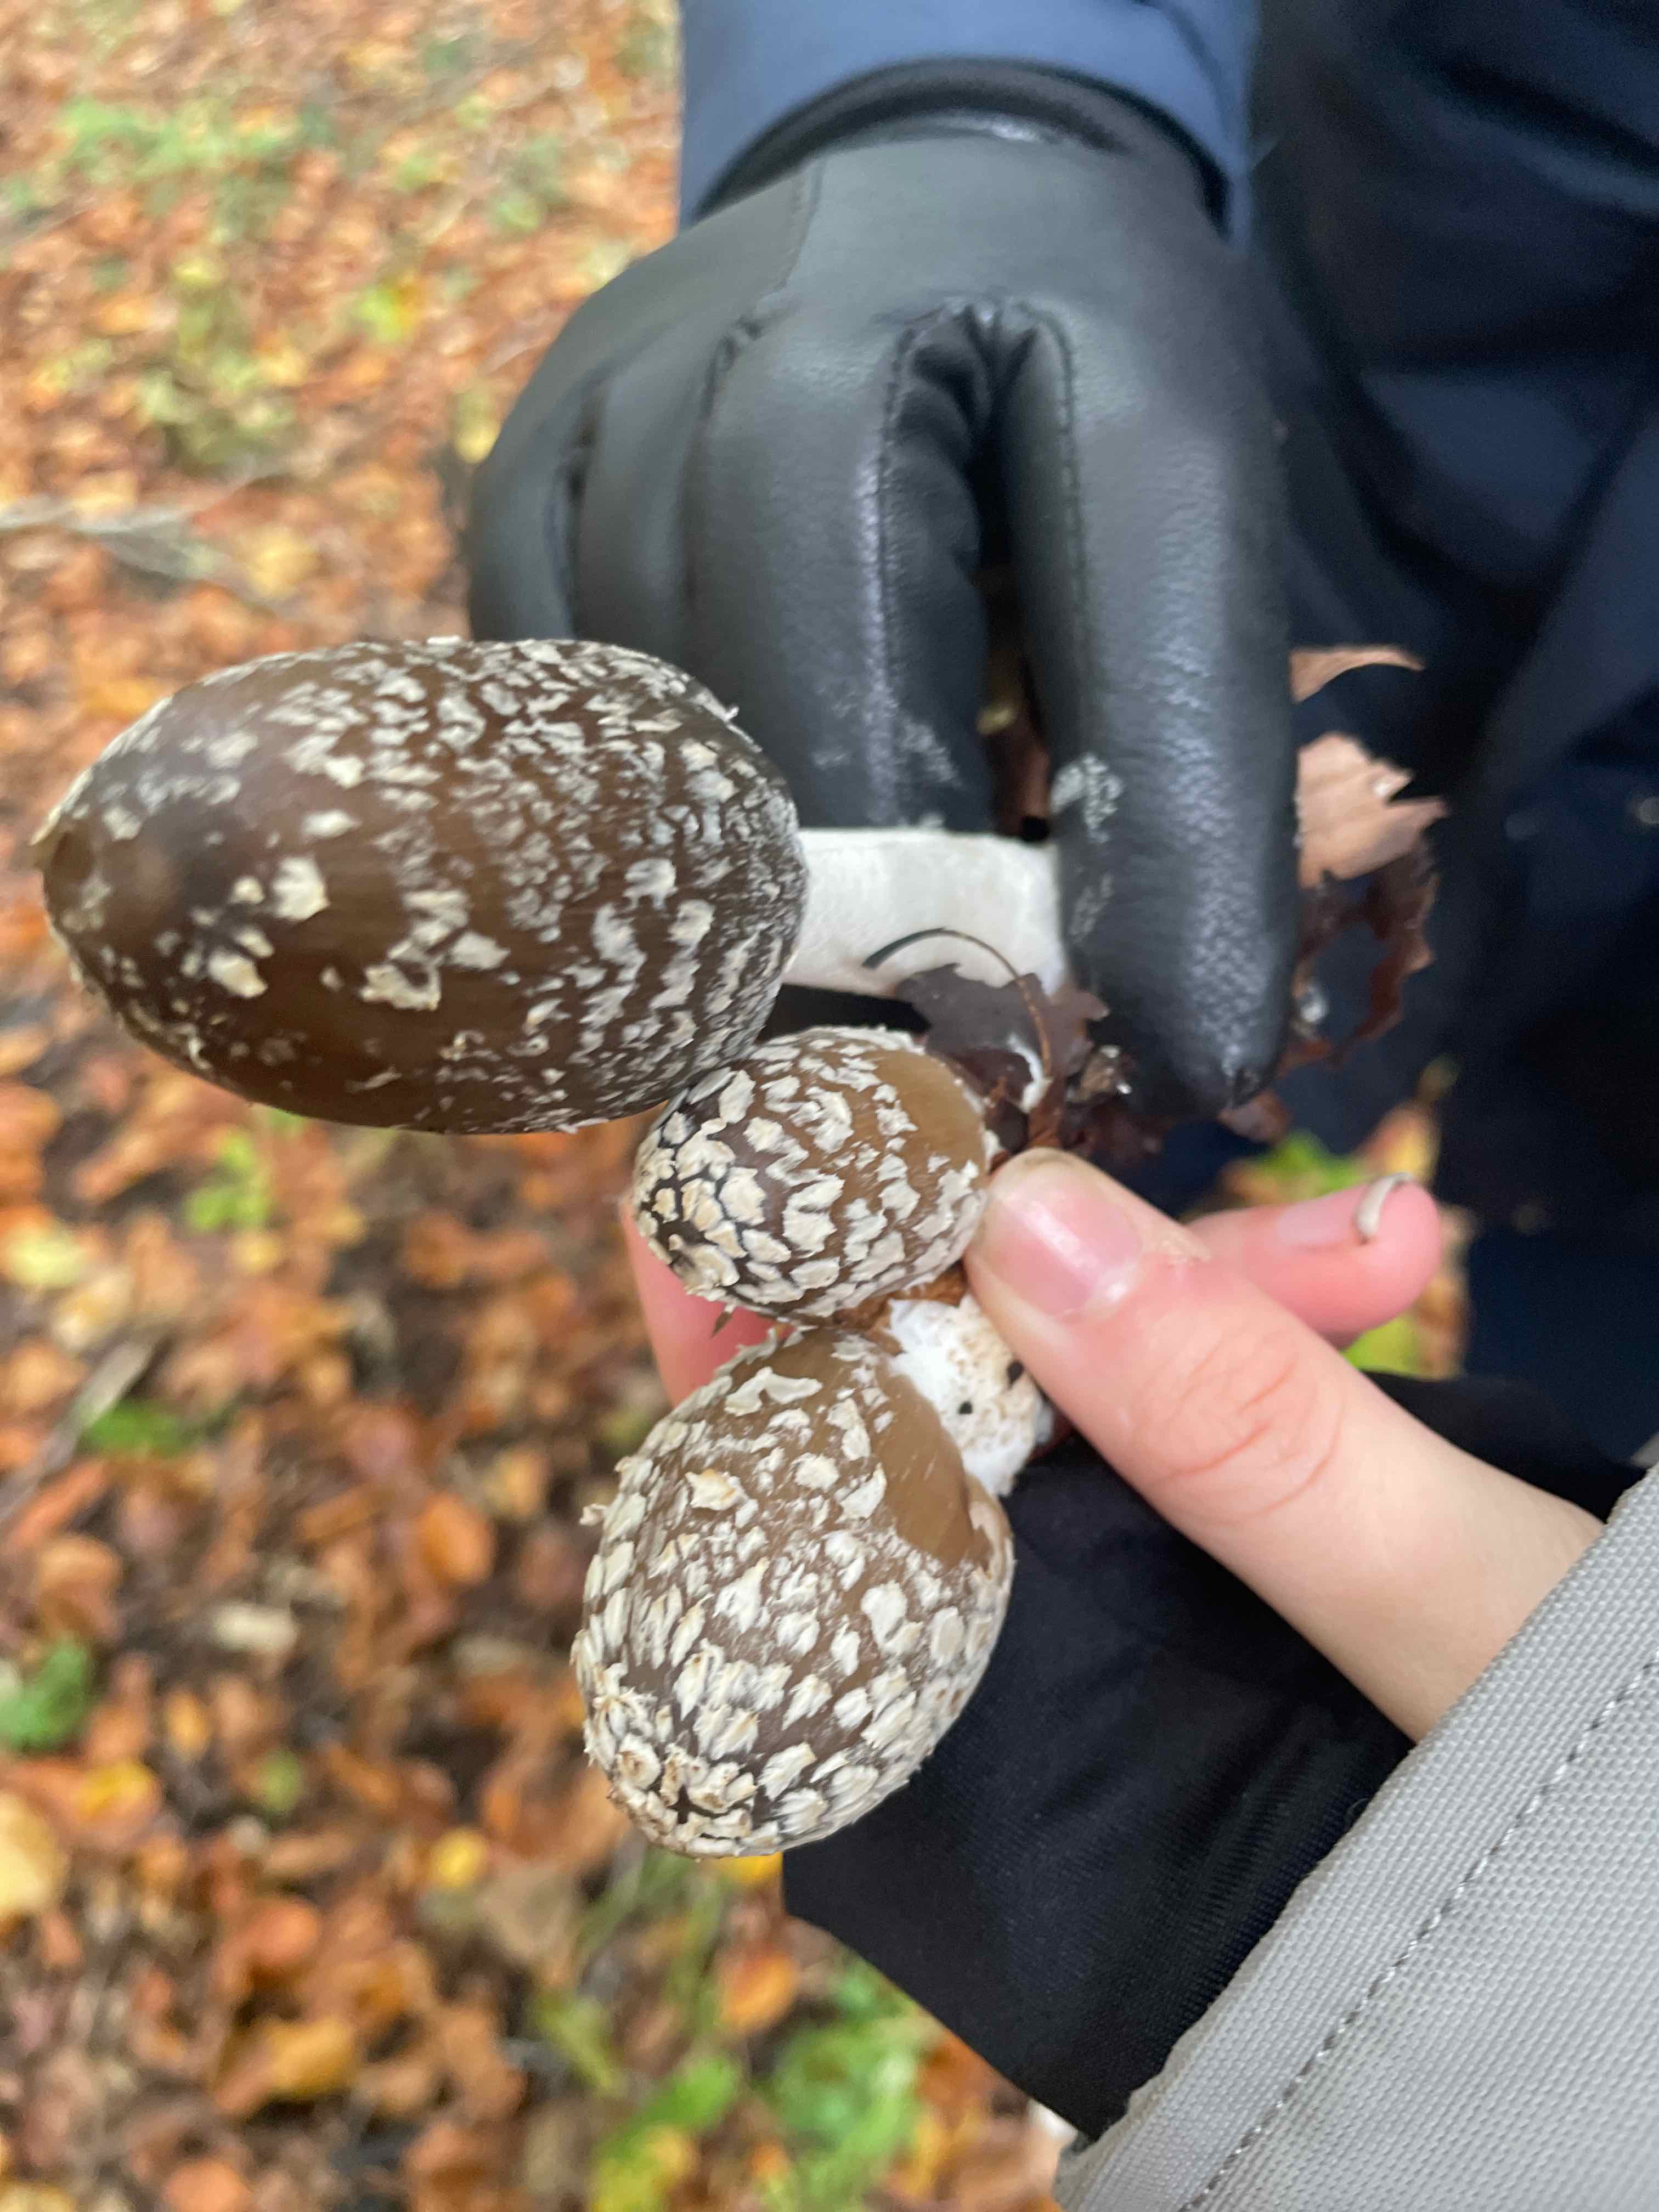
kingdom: Fungi
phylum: Basidiomycota
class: Agaricomycetes
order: Agaricales
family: Psathyrellaceae
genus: Coprinopsis
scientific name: Coprinopsis picacea
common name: skade-blækhat
